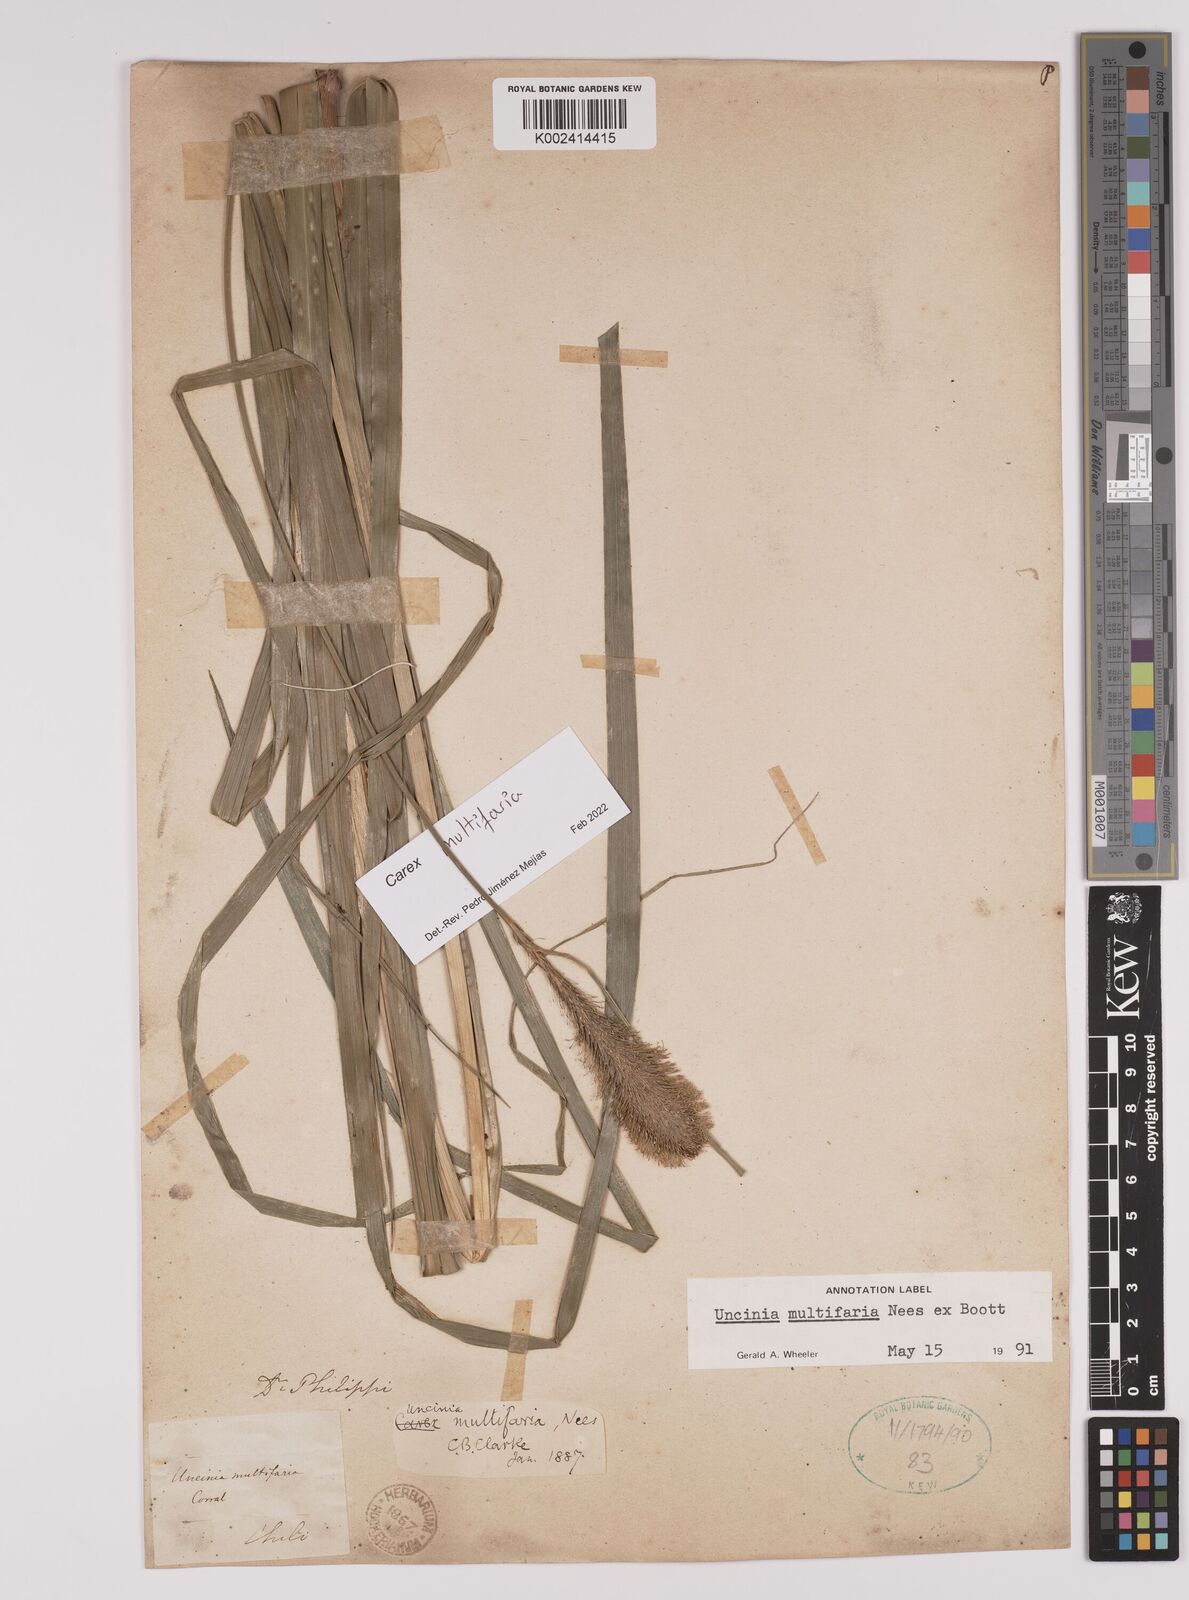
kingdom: Plantae
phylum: Tracheophyta
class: Liliopsida
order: Poales
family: Cyperaceae
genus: Carex
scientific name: Carex multifaria
